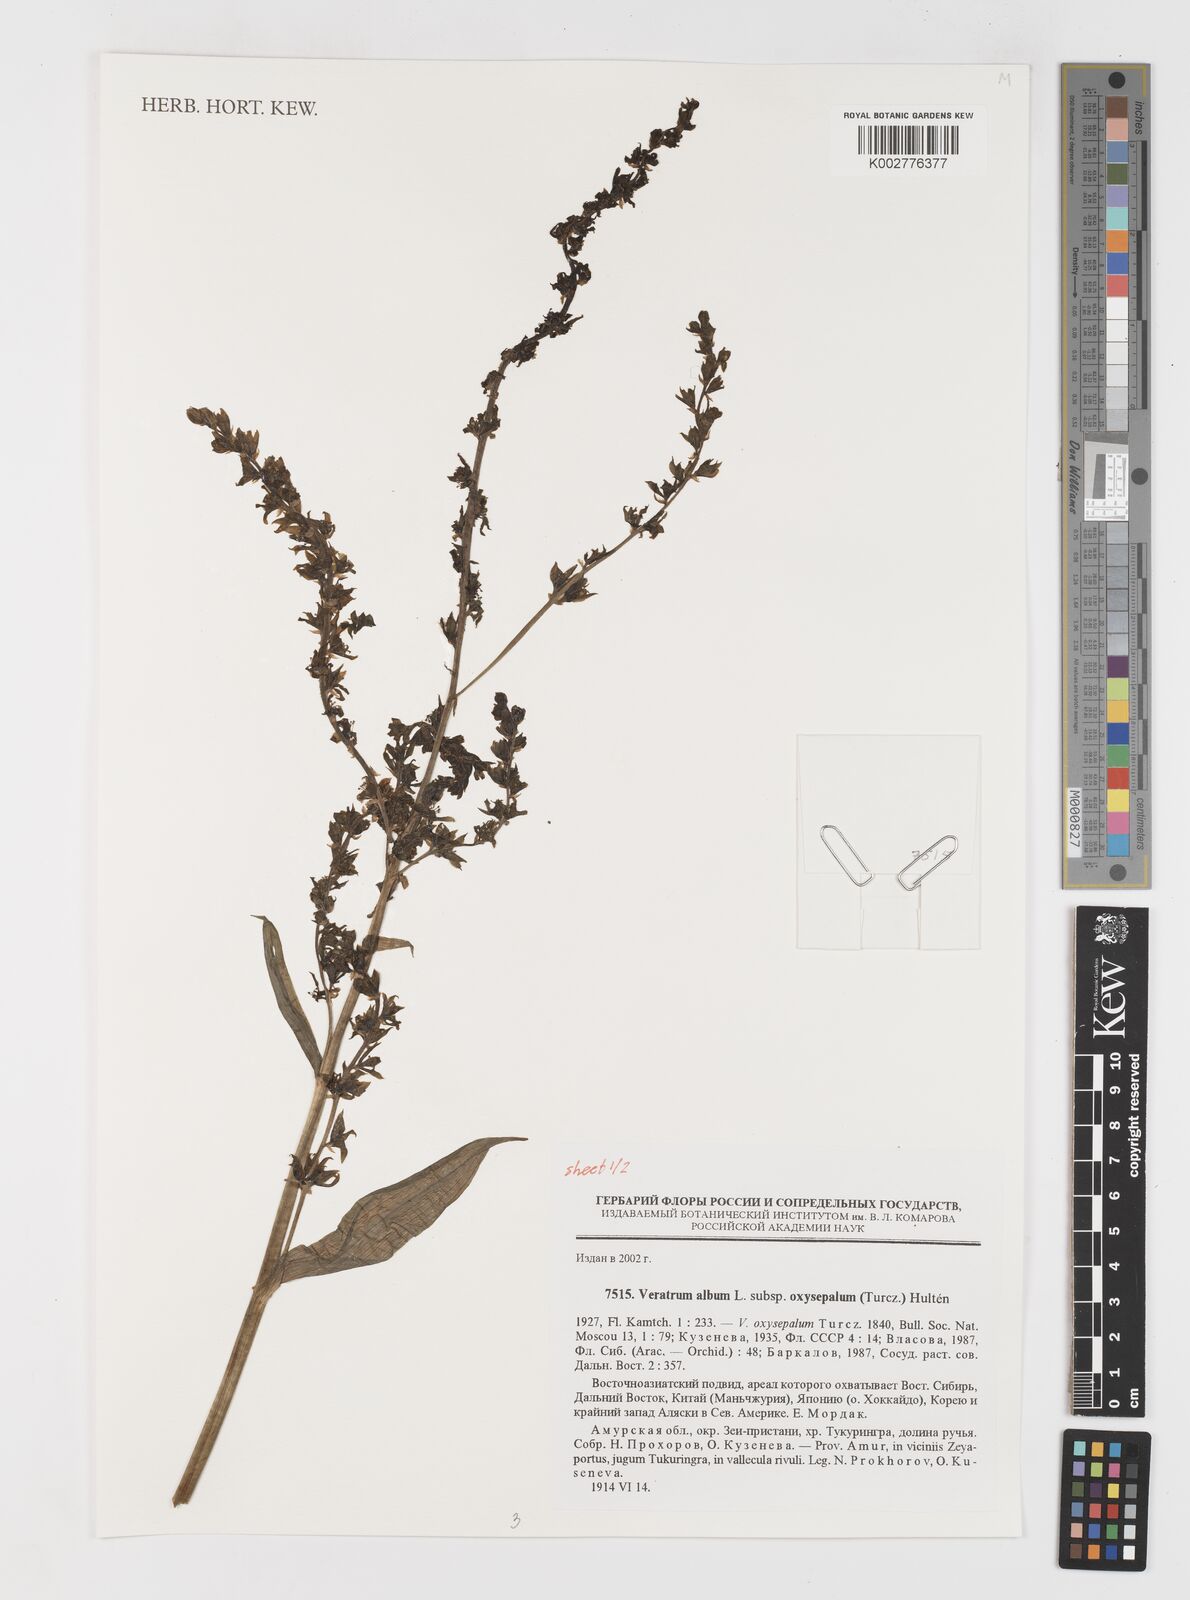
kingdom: Plantae
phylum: Tracheophyta
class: Liliopsida
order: Liliales
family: Melanthiaceae
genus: Veratrum
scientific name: Veratrum oxysepalum
